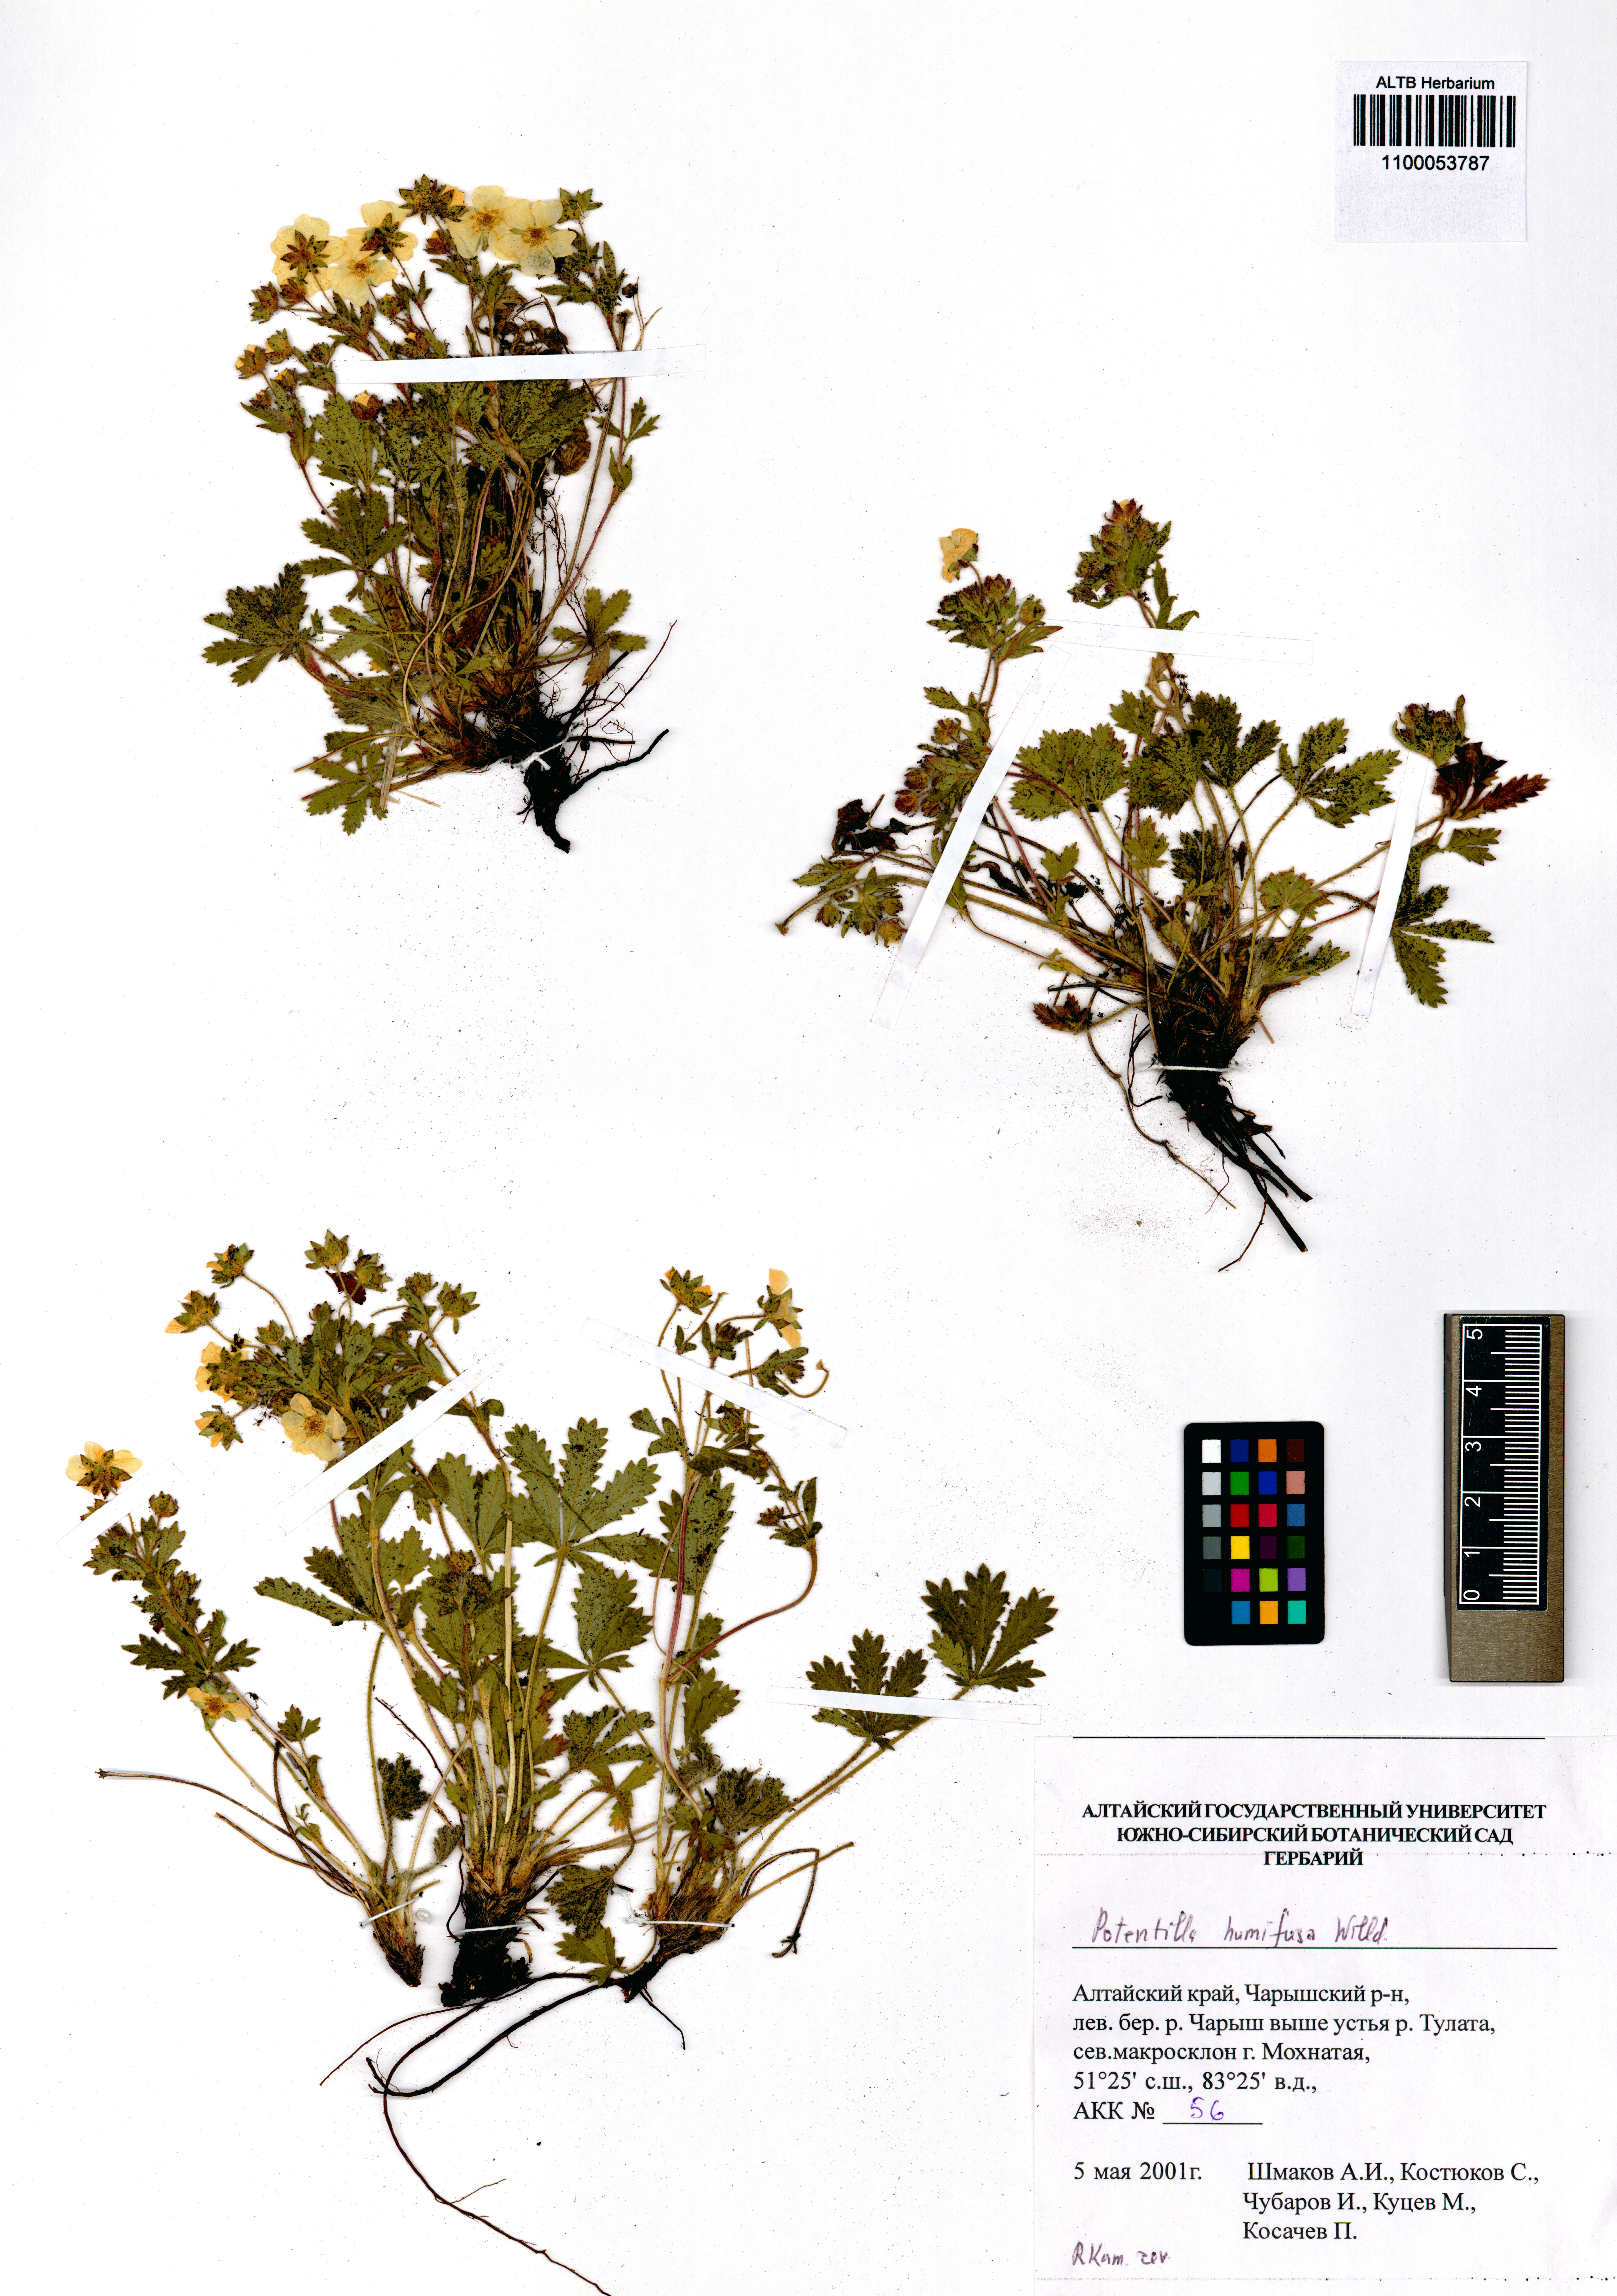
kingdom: Plantae
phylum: Tracheophyta
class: Magnoliopsida
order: Rosales
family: Rosaceae
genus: Potentilla
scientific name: Potentilla humifusa
